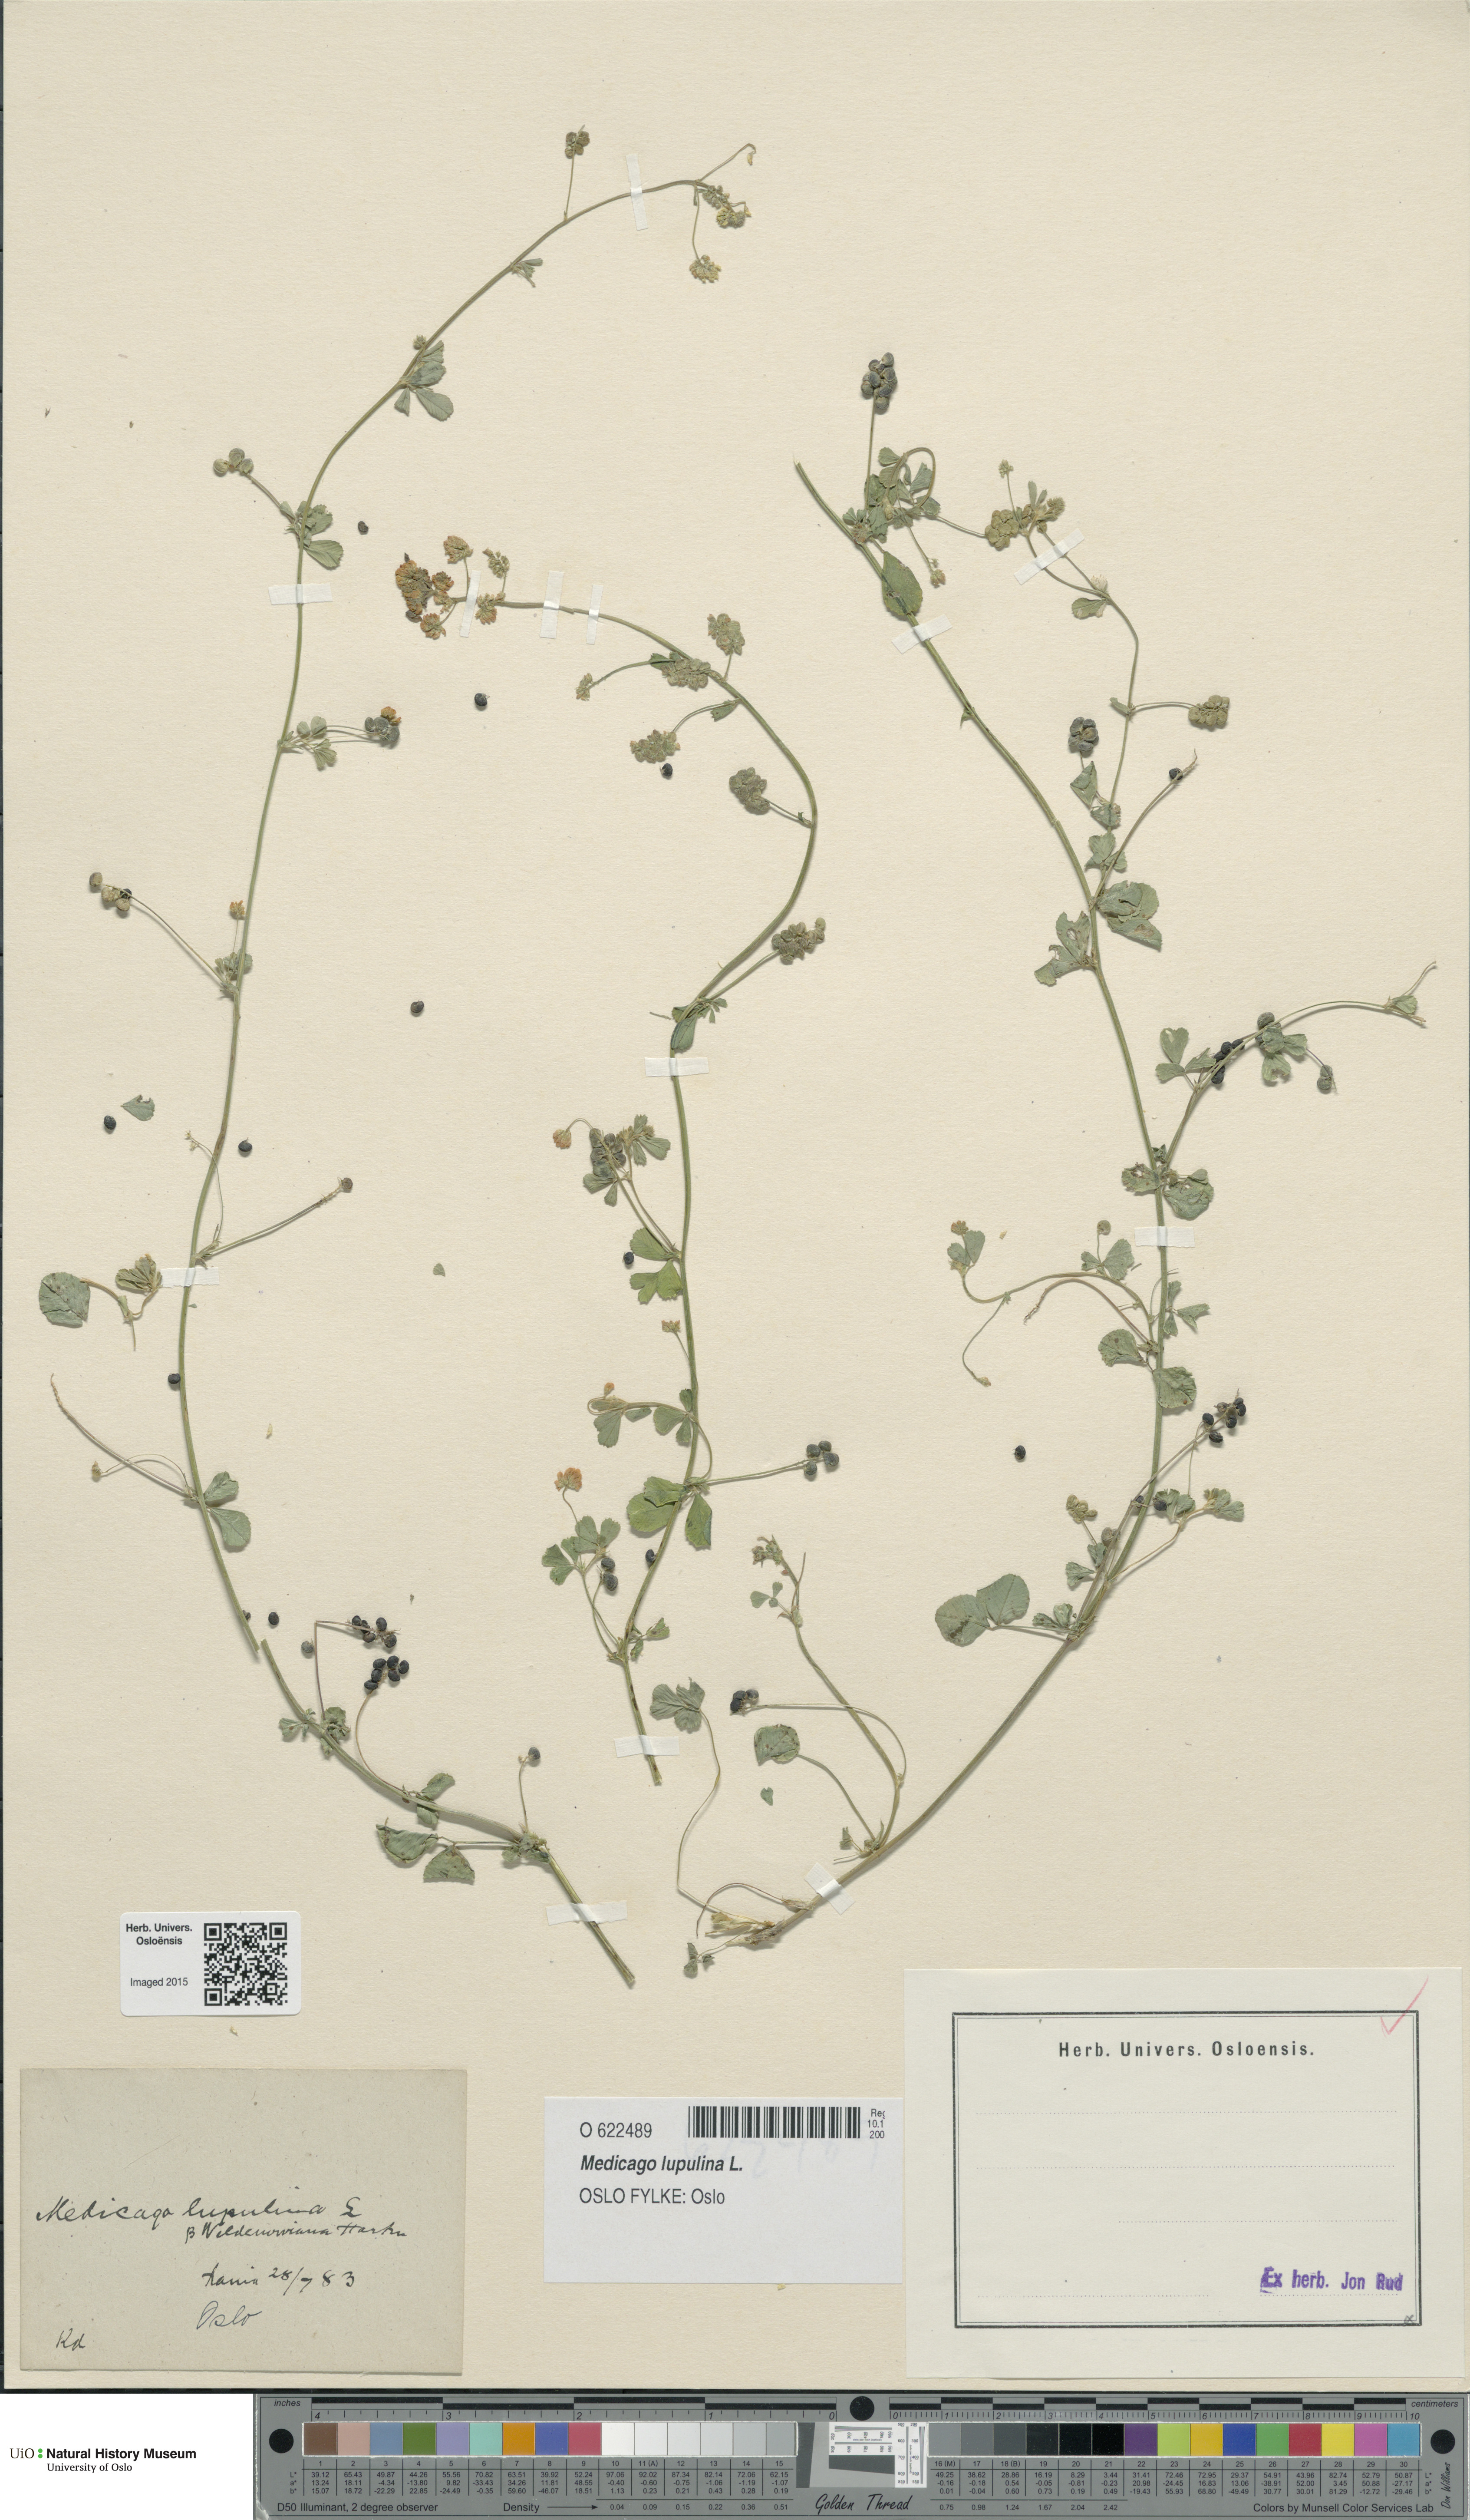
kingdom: Plantae
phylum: Tracheophyta
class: Magnoliopsida
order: Fabales
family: Fabaceae
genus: Medicago
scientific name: Medicago lupulina
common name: Black medick
